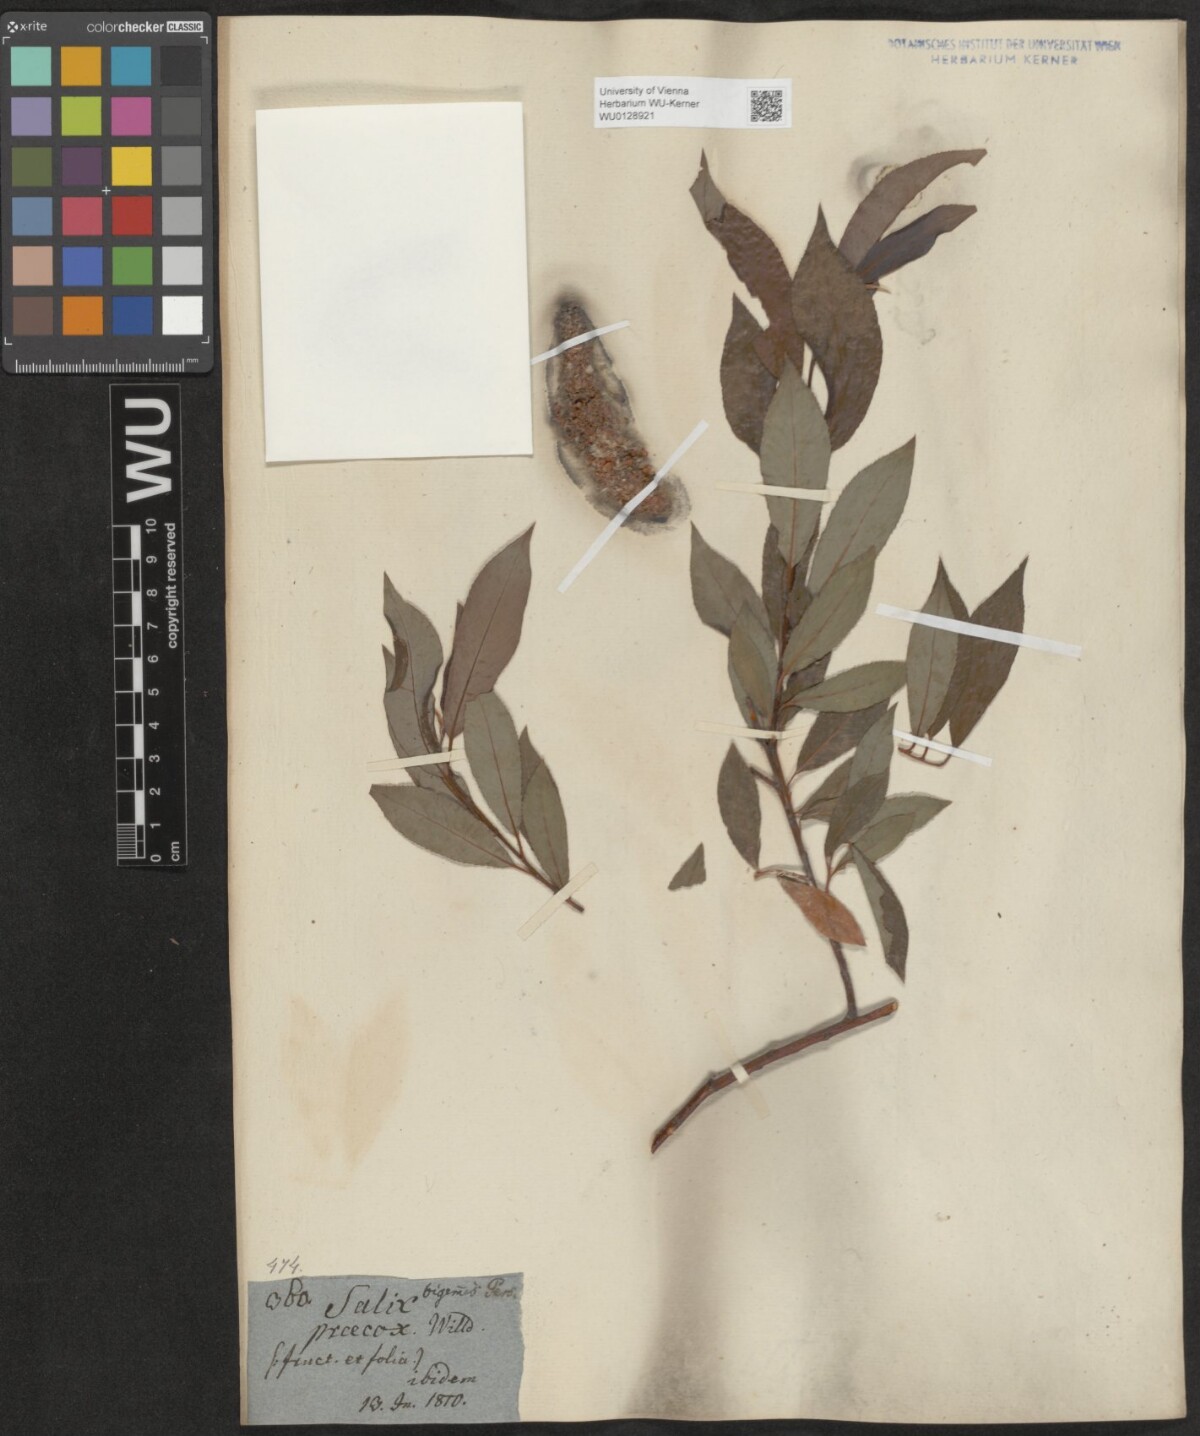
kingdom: Plantae
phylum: Tracheophyta
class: Magnoliopsida
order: Malpighiales
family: Salicaceae
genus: Salix
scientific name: Salix daphnoides
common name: European violet-willow
